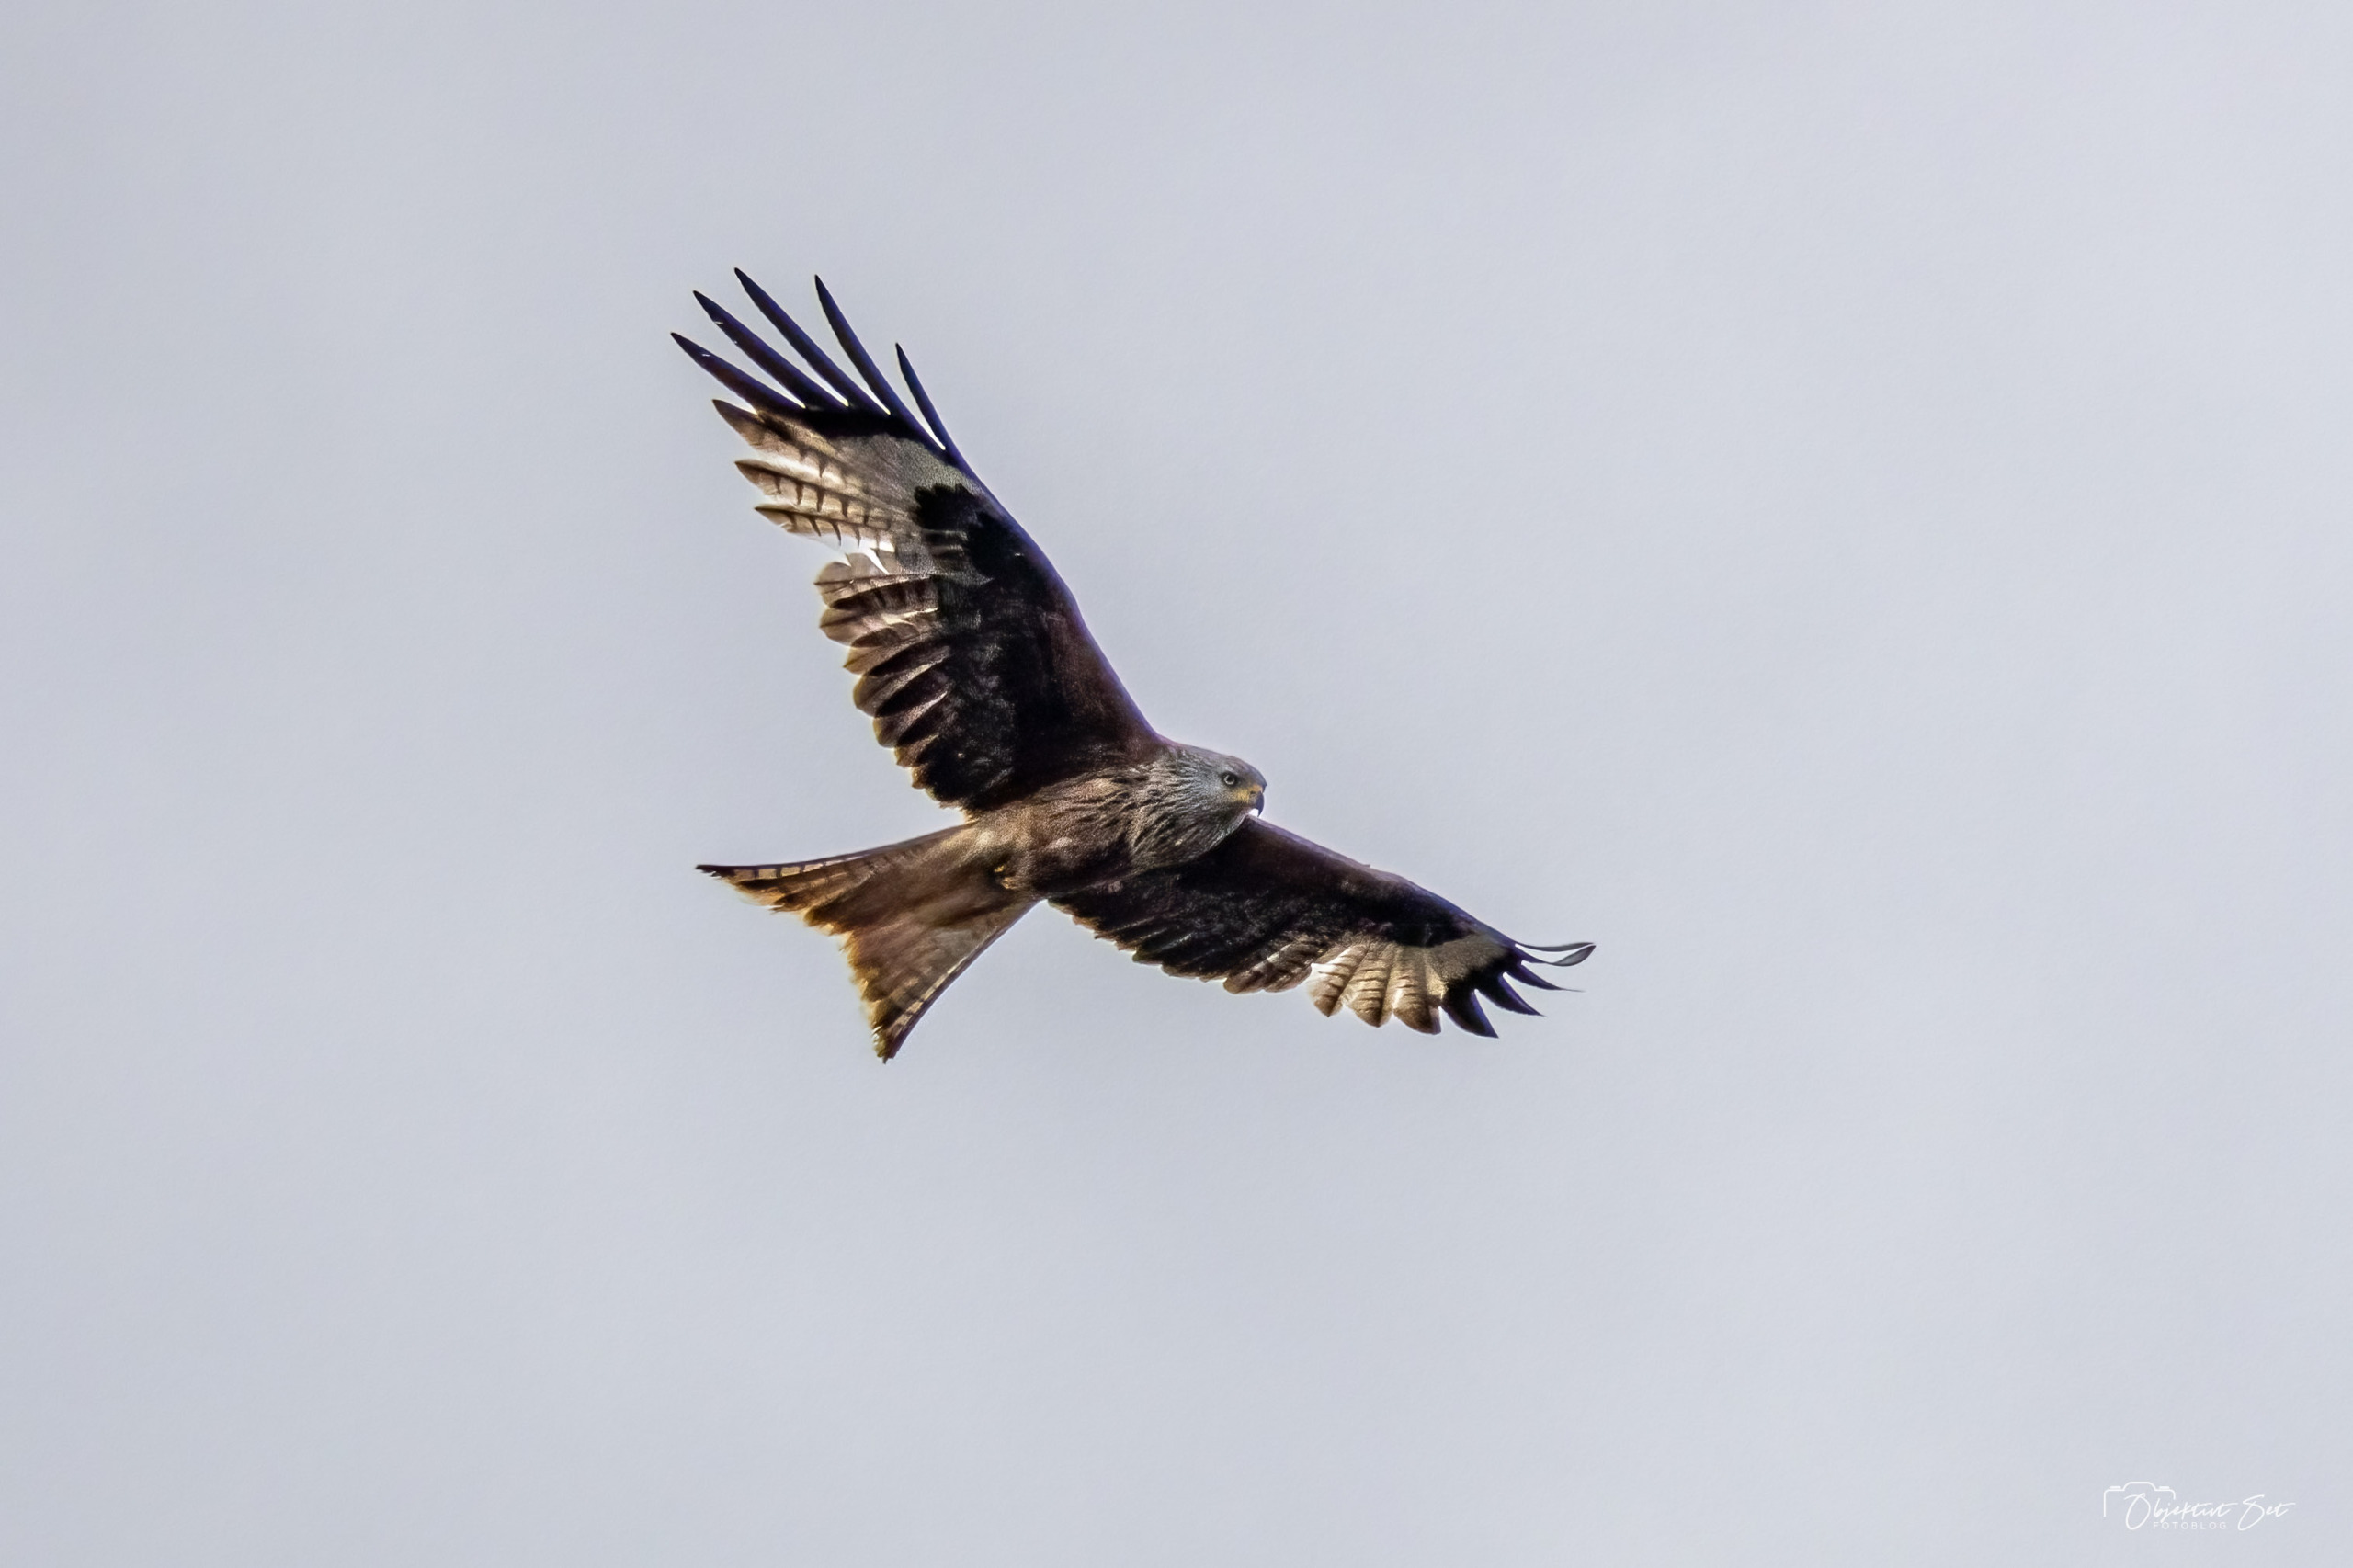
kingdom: Animalia
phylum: Chordata
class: Aves
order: Accipitriformes
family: Accipitridae
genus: Milvus
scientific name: Milvus milvus
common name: Rød glente
